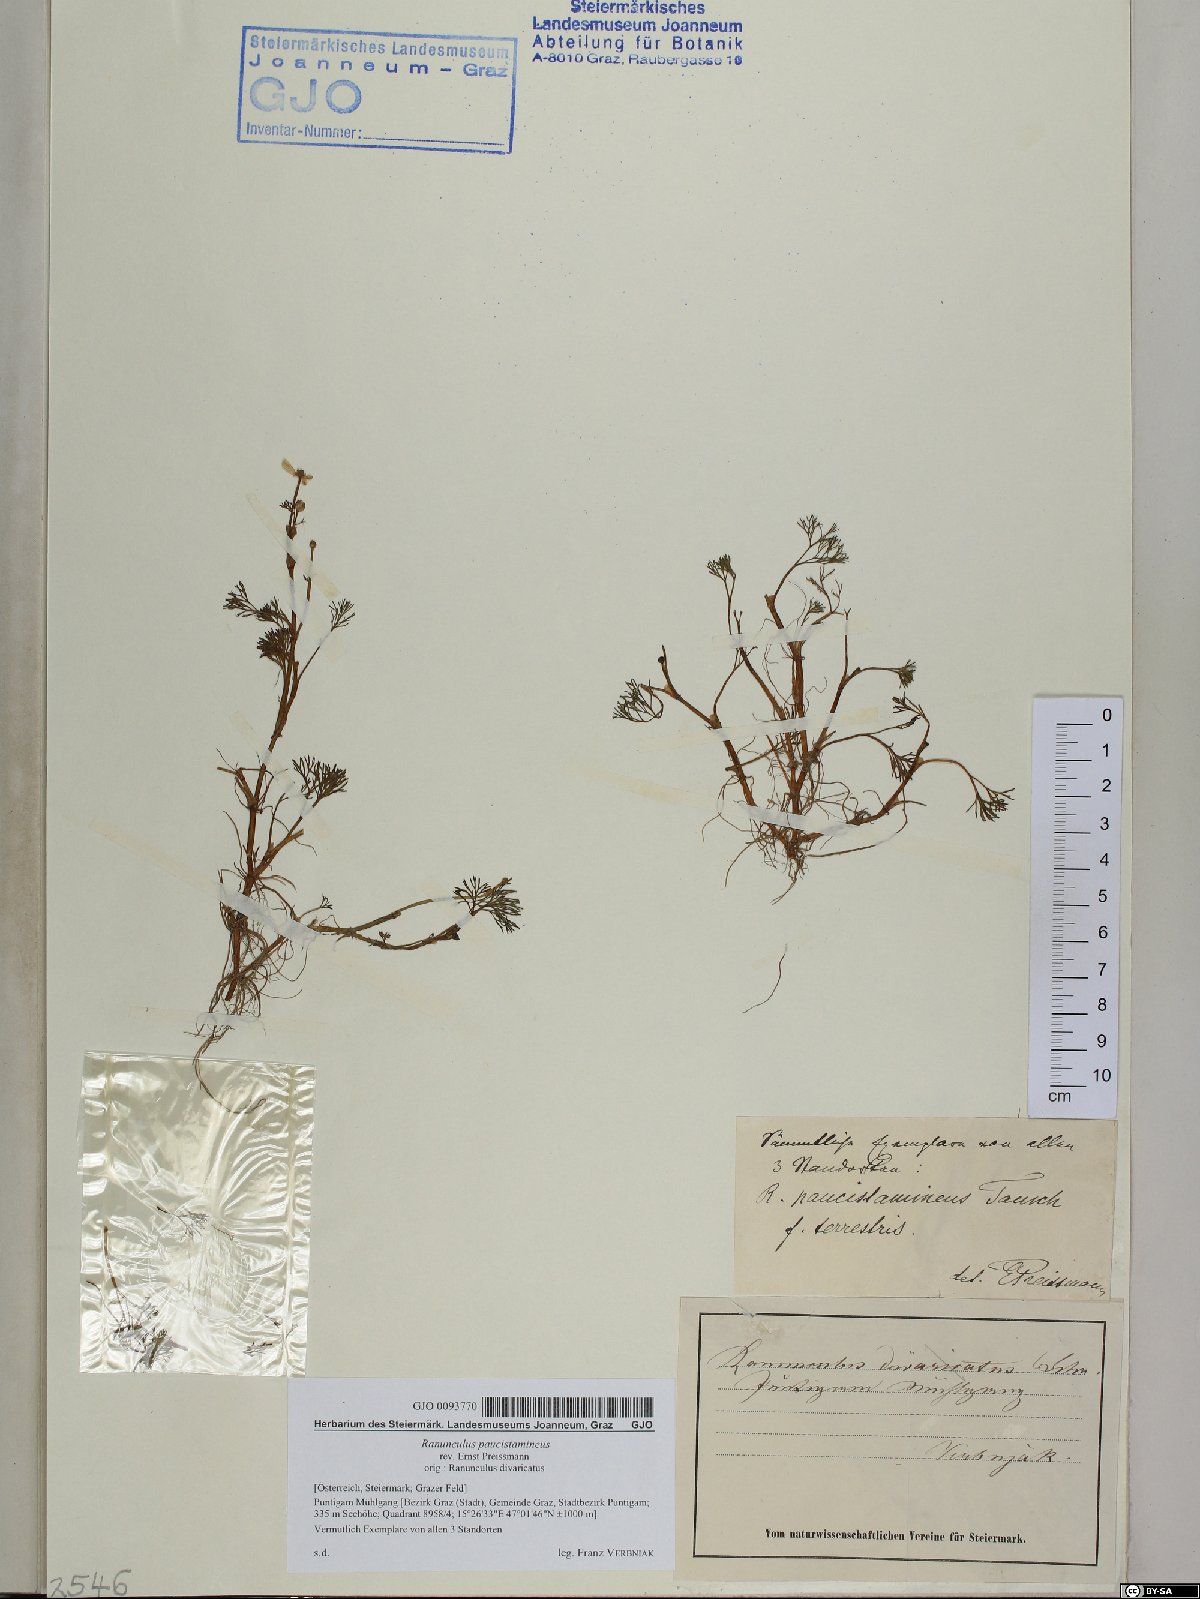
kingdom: Plantae
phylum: Tracheophyta
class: Magnoliopsida
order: Ranunculales
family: Ranunculaceae
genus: Ranunculus
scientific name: Ranunculus
